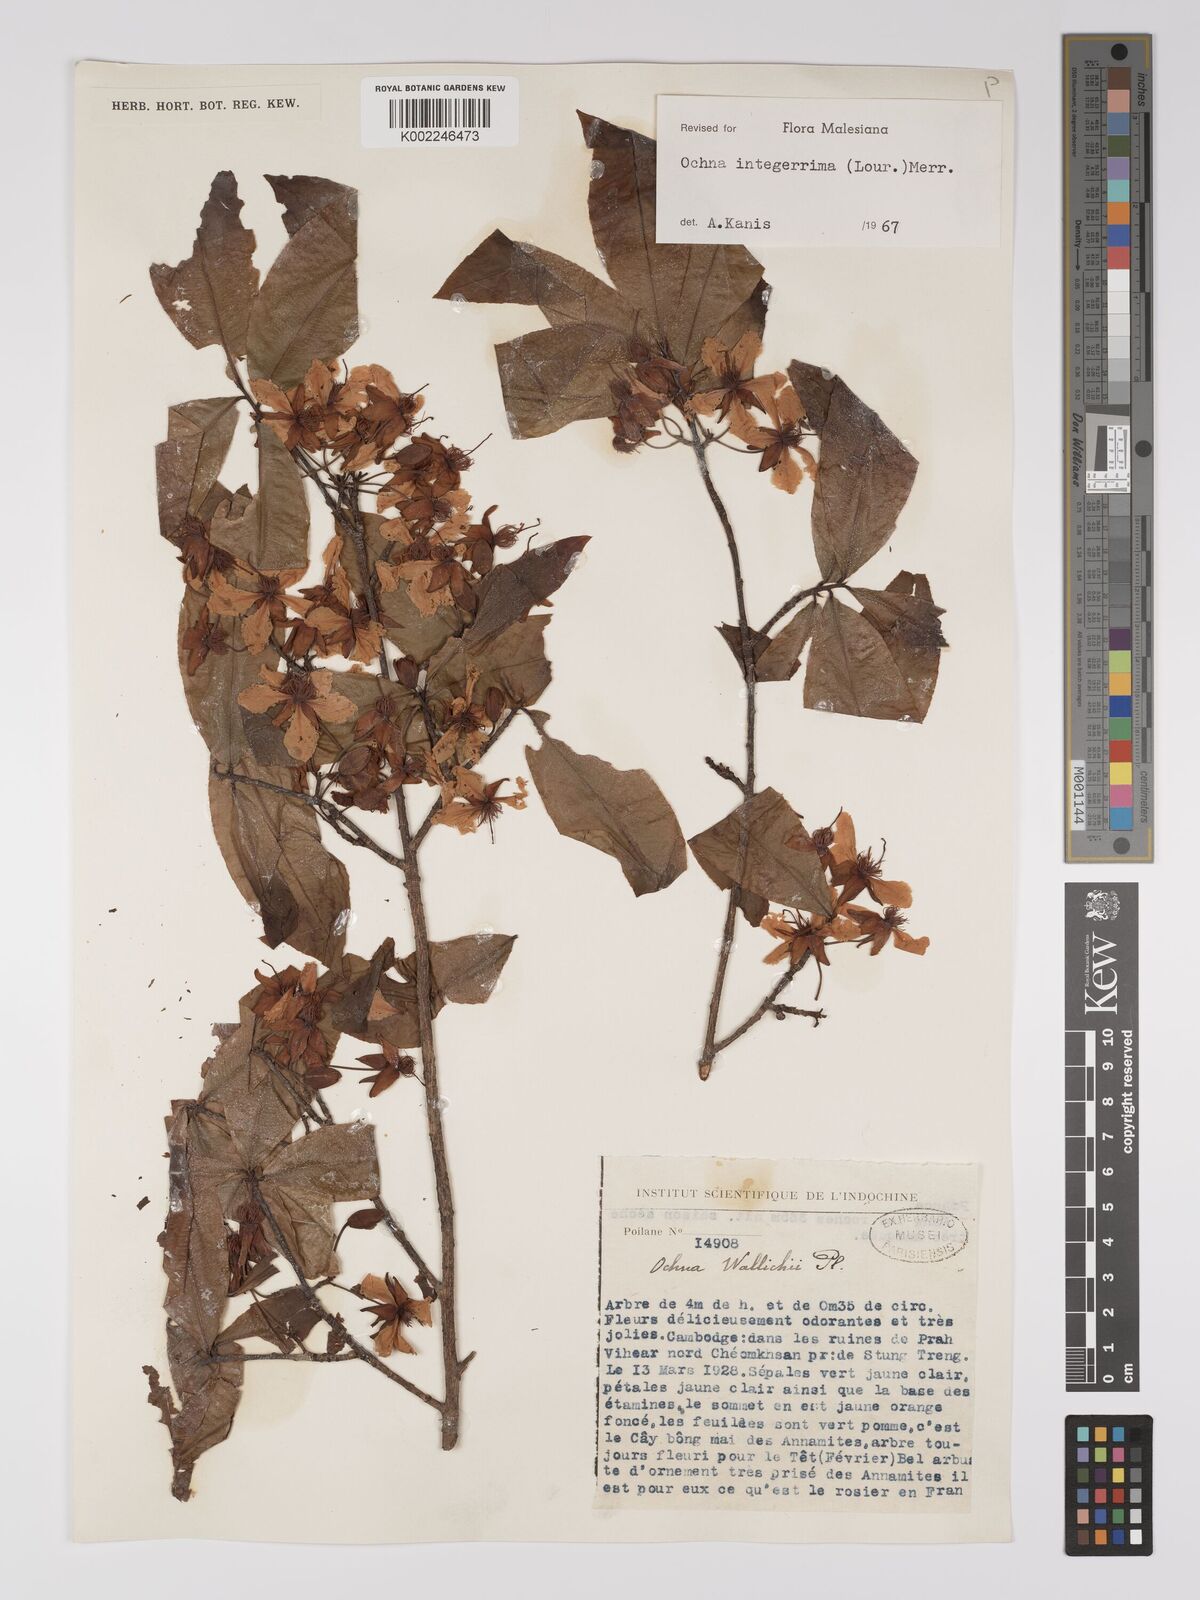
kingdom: Plantae
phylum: Tracheophyta
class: Magnoliopsida
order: Malpighiales
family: Ochnaceae
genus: Ochna
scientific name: Ochna integerrima
